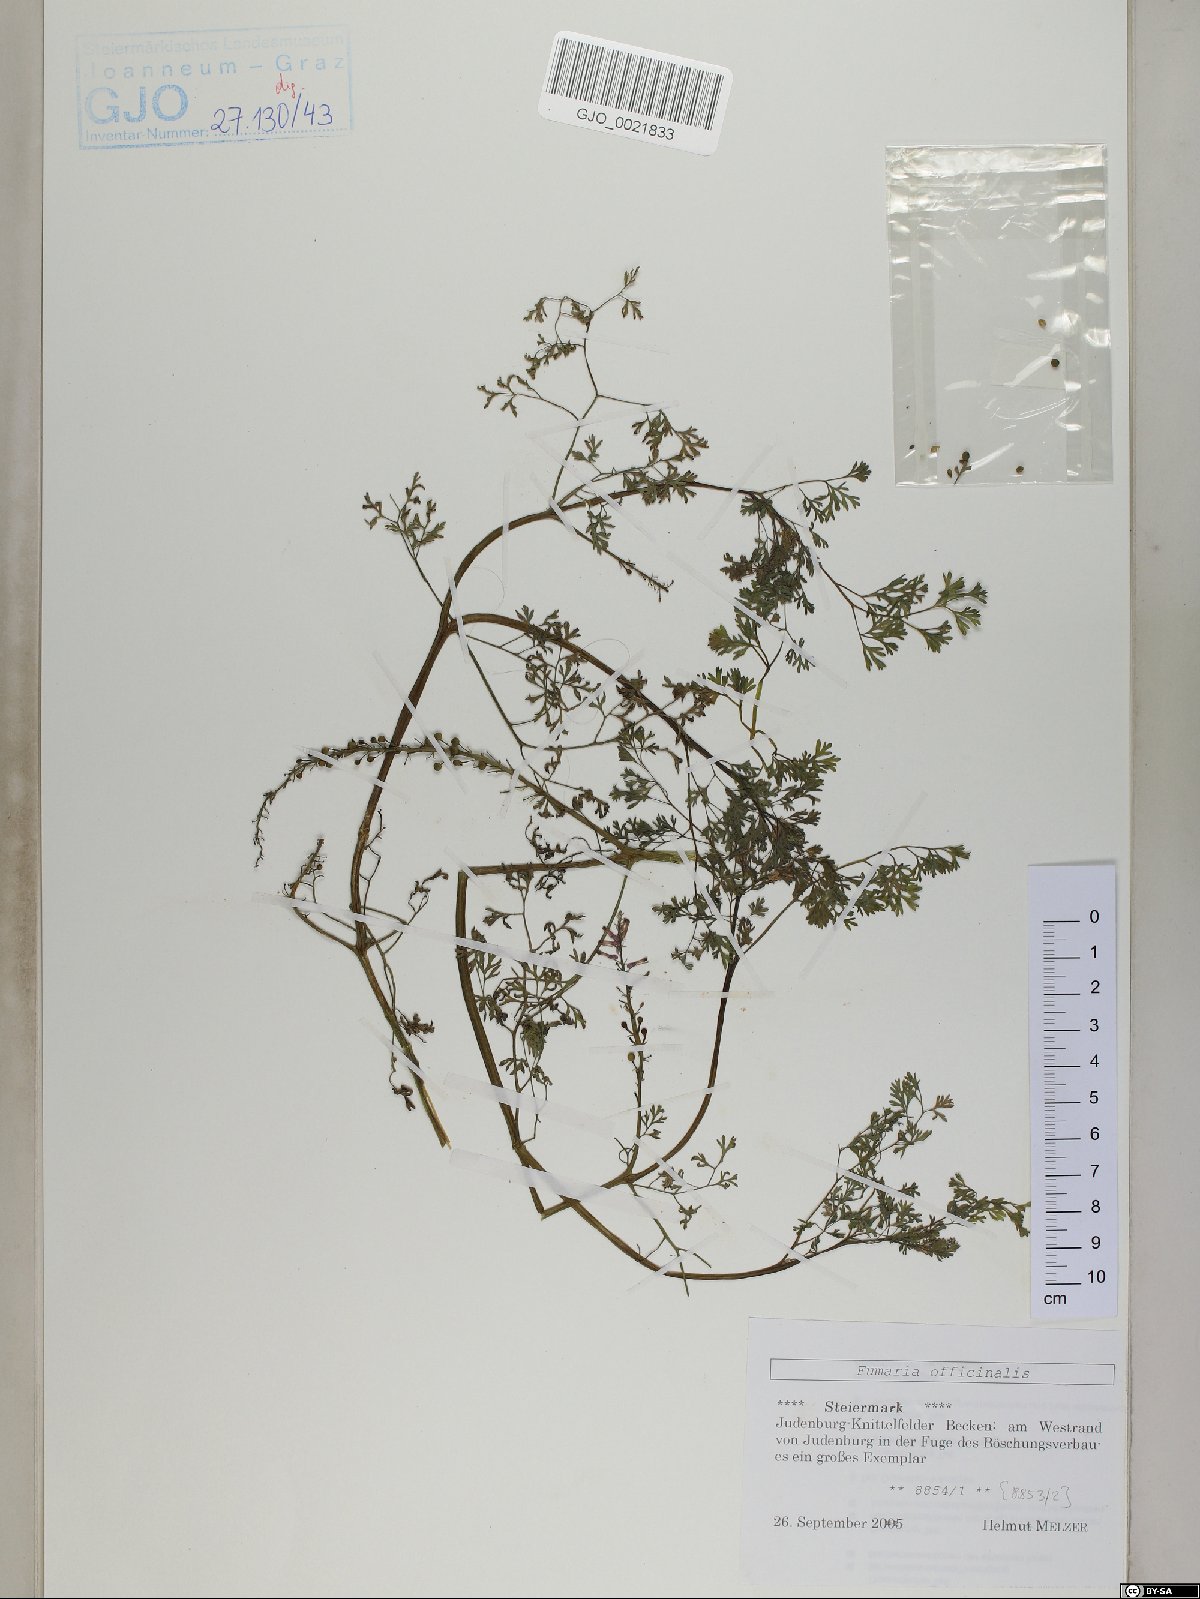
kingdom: Plantae
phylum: Tracheophyta
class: Magnoliopsida
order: Ranunculales
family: Papaveraceae
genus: Fumaria
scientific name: Fumaria officinalis
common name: Common fumitory
